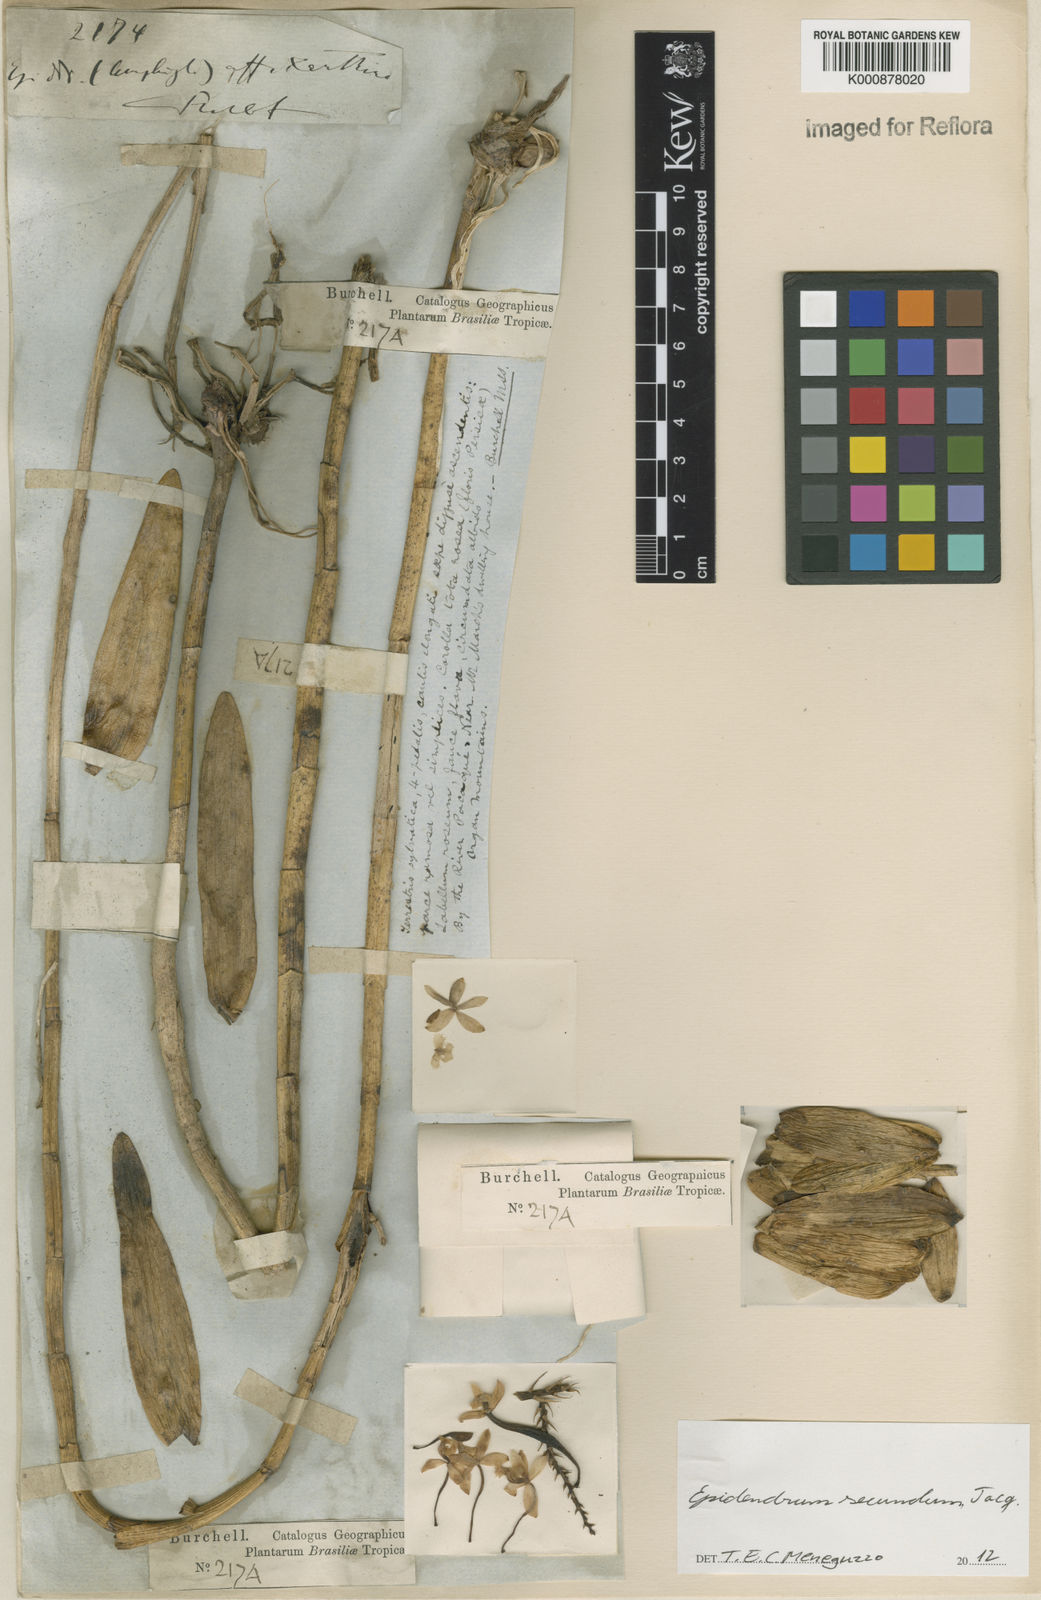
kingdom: Plantae
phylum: Tracheophyta
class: Liliopsida
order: Asparagales
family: Orchidaceae
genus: Epidendrum
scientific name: Epidendrum secundum
